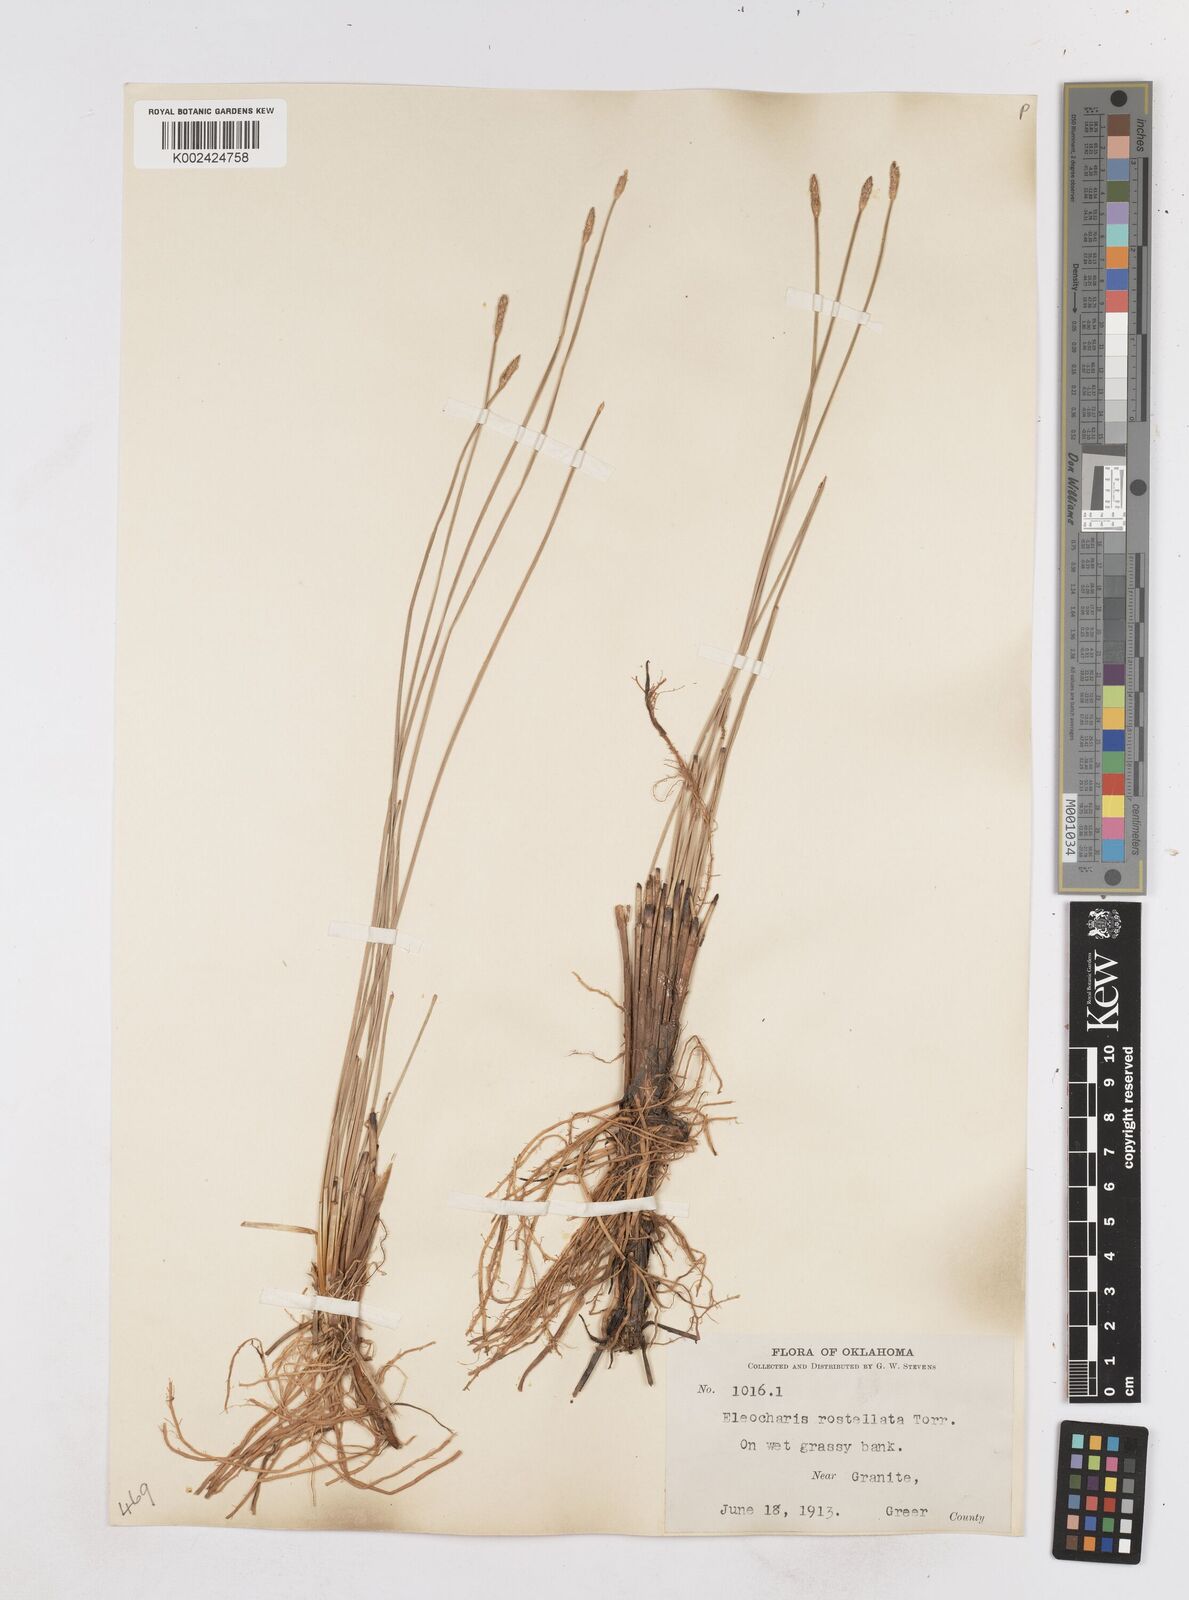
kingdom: Plantae
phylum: Tracheophyta
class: Liliopsida
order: Poales
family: Cyperaceae
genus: Eleocharis
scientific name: Eleocharis rostellata
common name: Walking sedge
